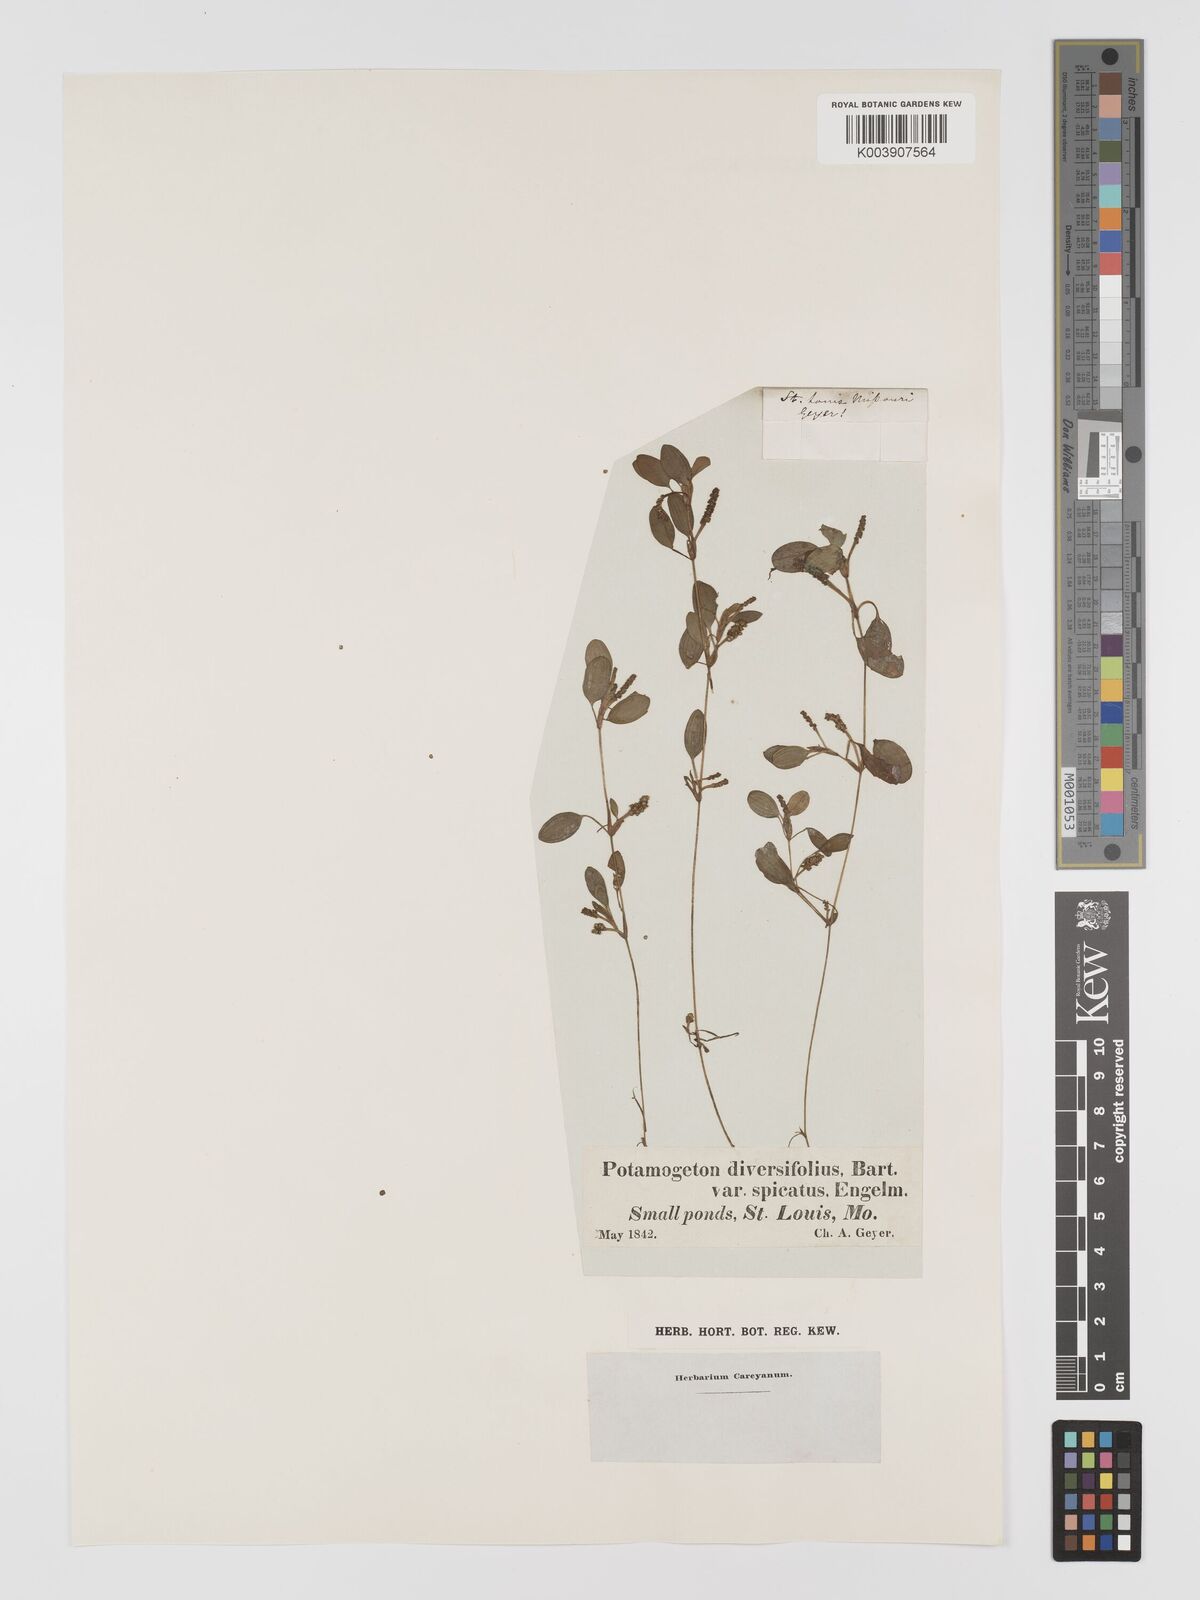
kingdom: Plantae
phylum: Tracheophyta
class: Liliopsida
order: Alismatales
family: Potamogetonaceae
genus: Potamogeton
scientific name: Potamogeton bicupulatus
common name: Snail-seed pondweed
